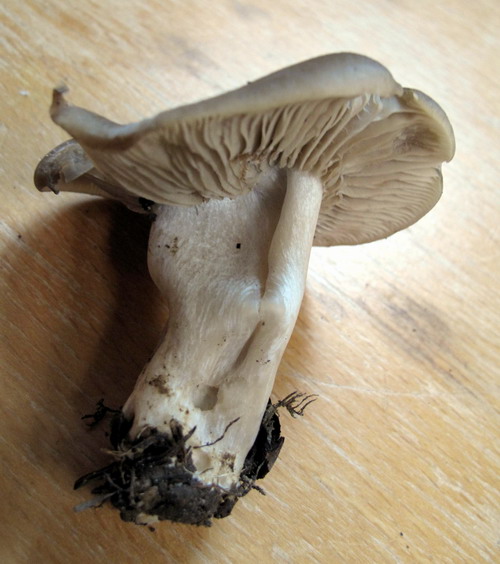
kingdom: Fungi
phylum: Basidiomycota
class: Agaricomycetes
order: Agaricales
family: Lyophyllaceae
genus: Lyophyllum
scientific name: Lyophyllum decastes
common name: Clustered domecap
